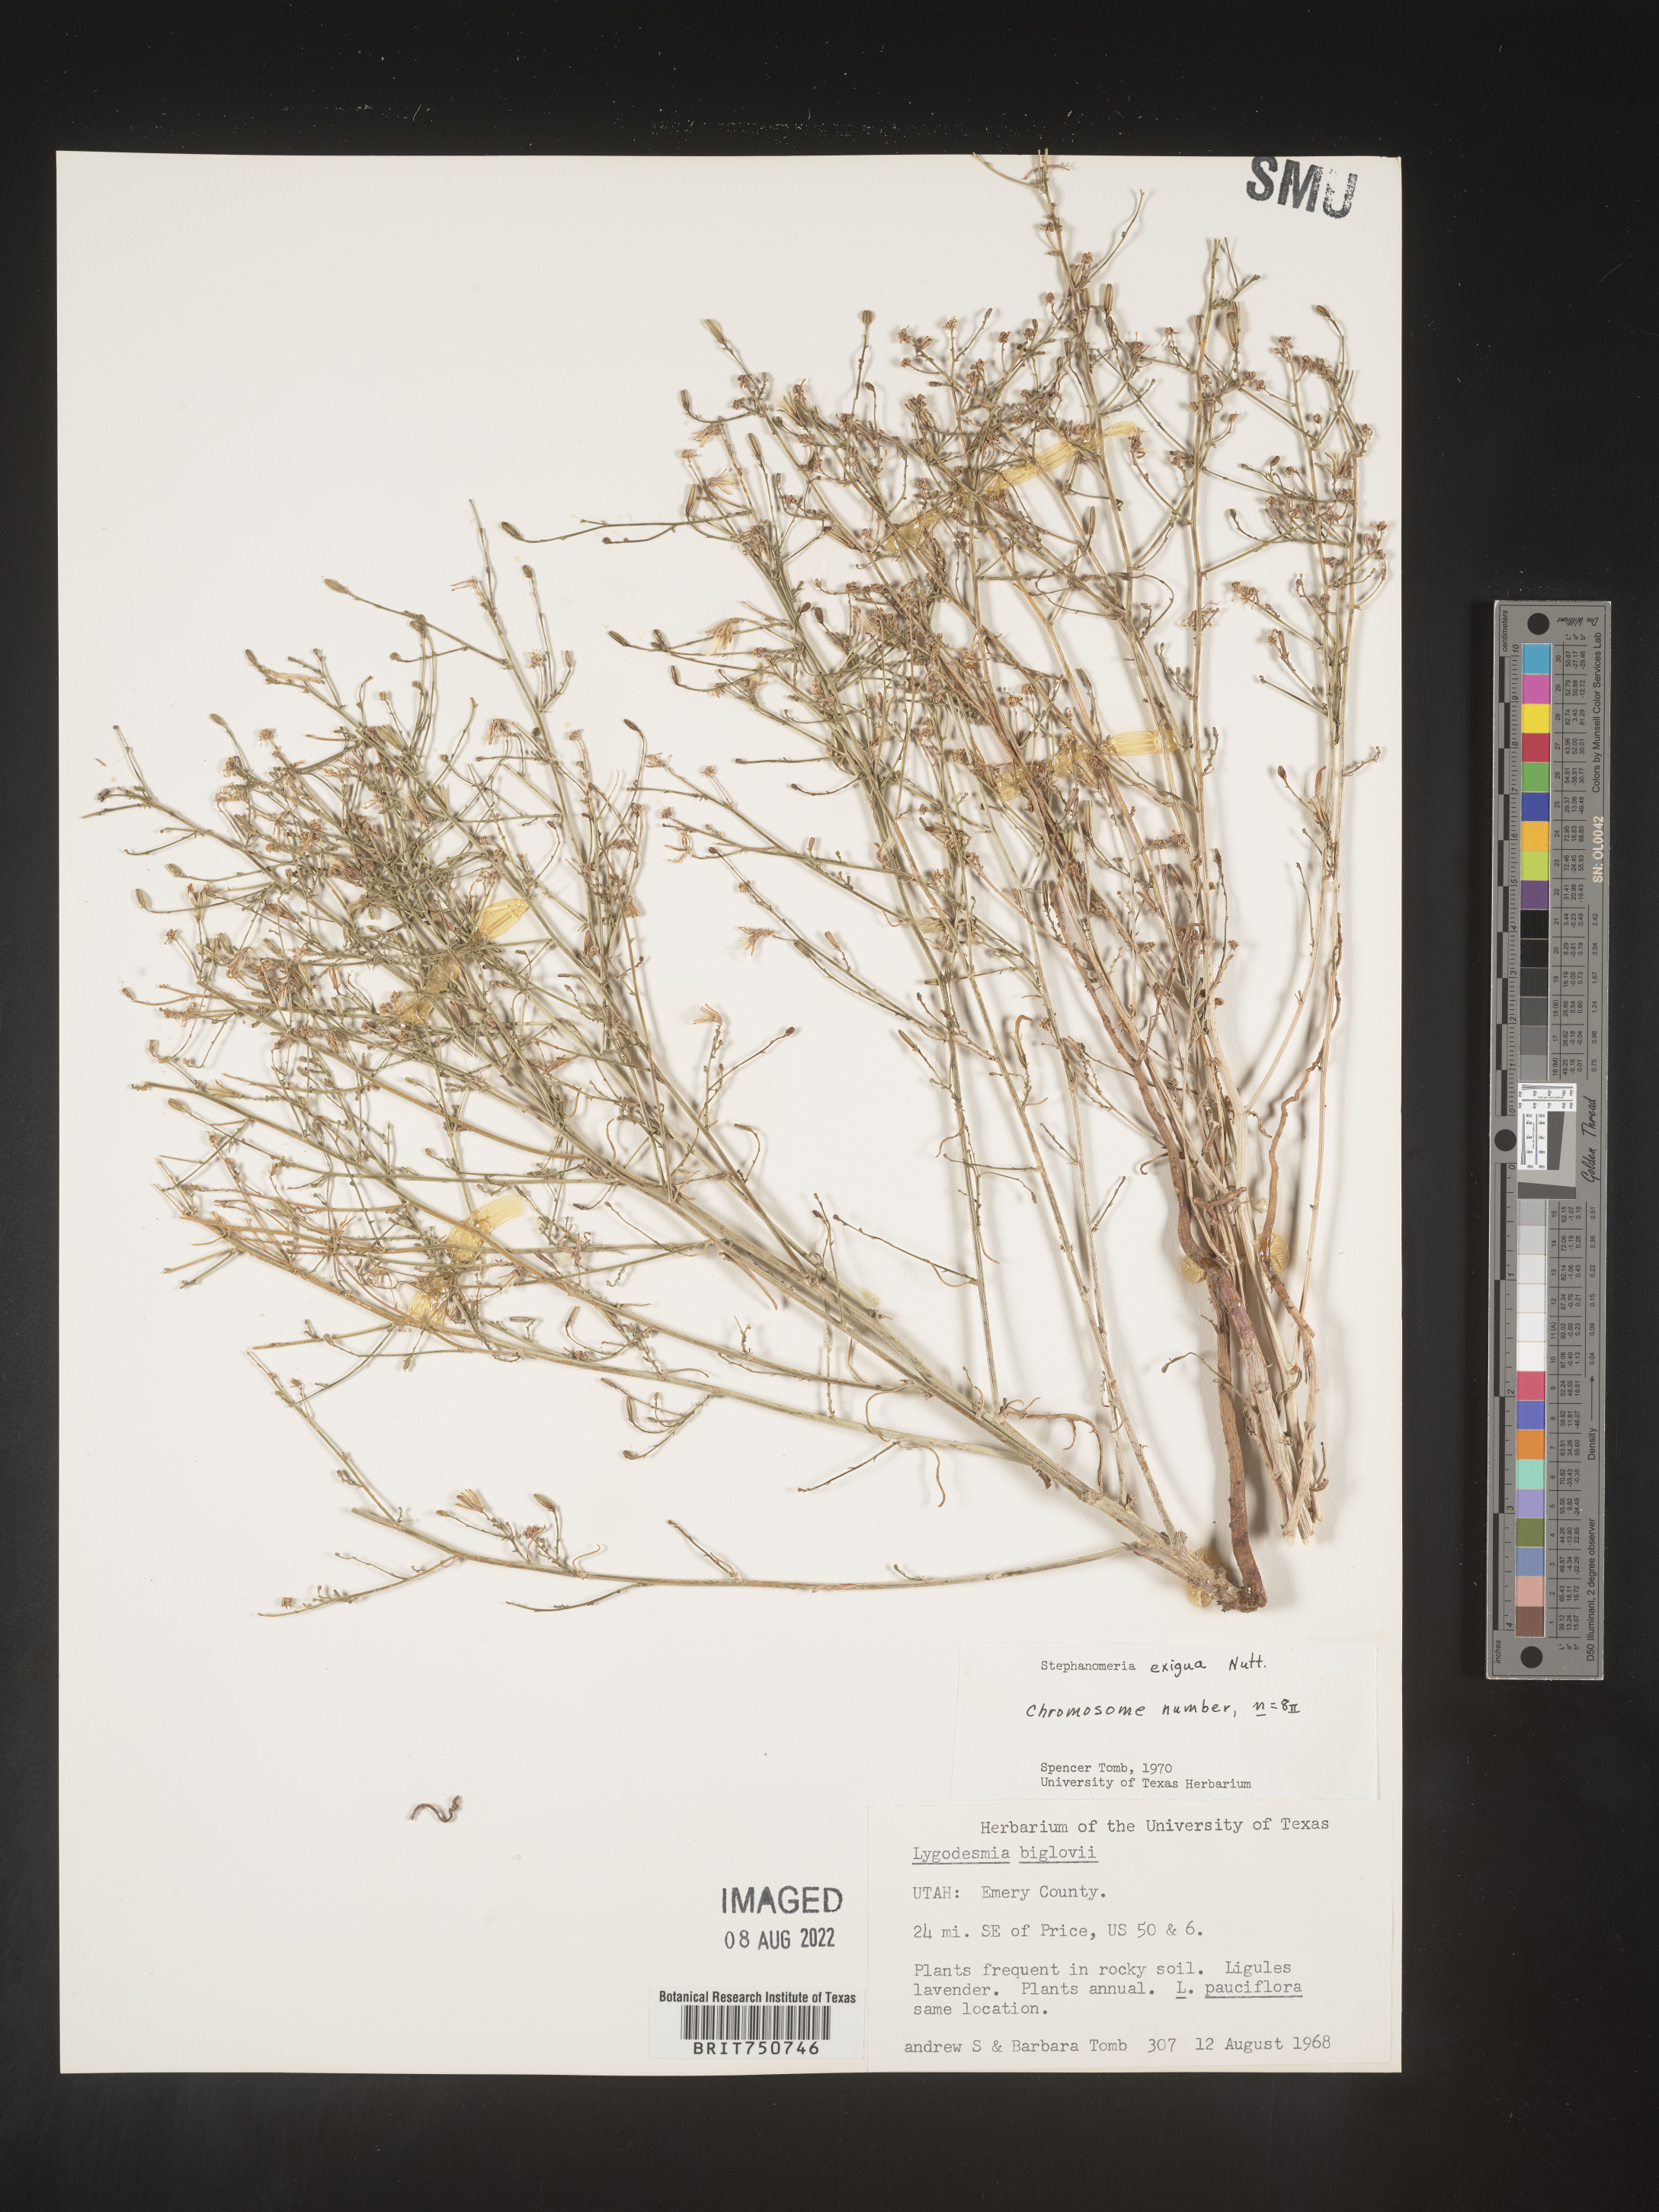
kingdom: Plantae
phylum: Tracheophyta
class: Magnoliopsida
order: Asterales
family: Asteraceae
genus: Stephanomeria
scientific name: Stephanomeria exigua
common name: Small wirelettuce
